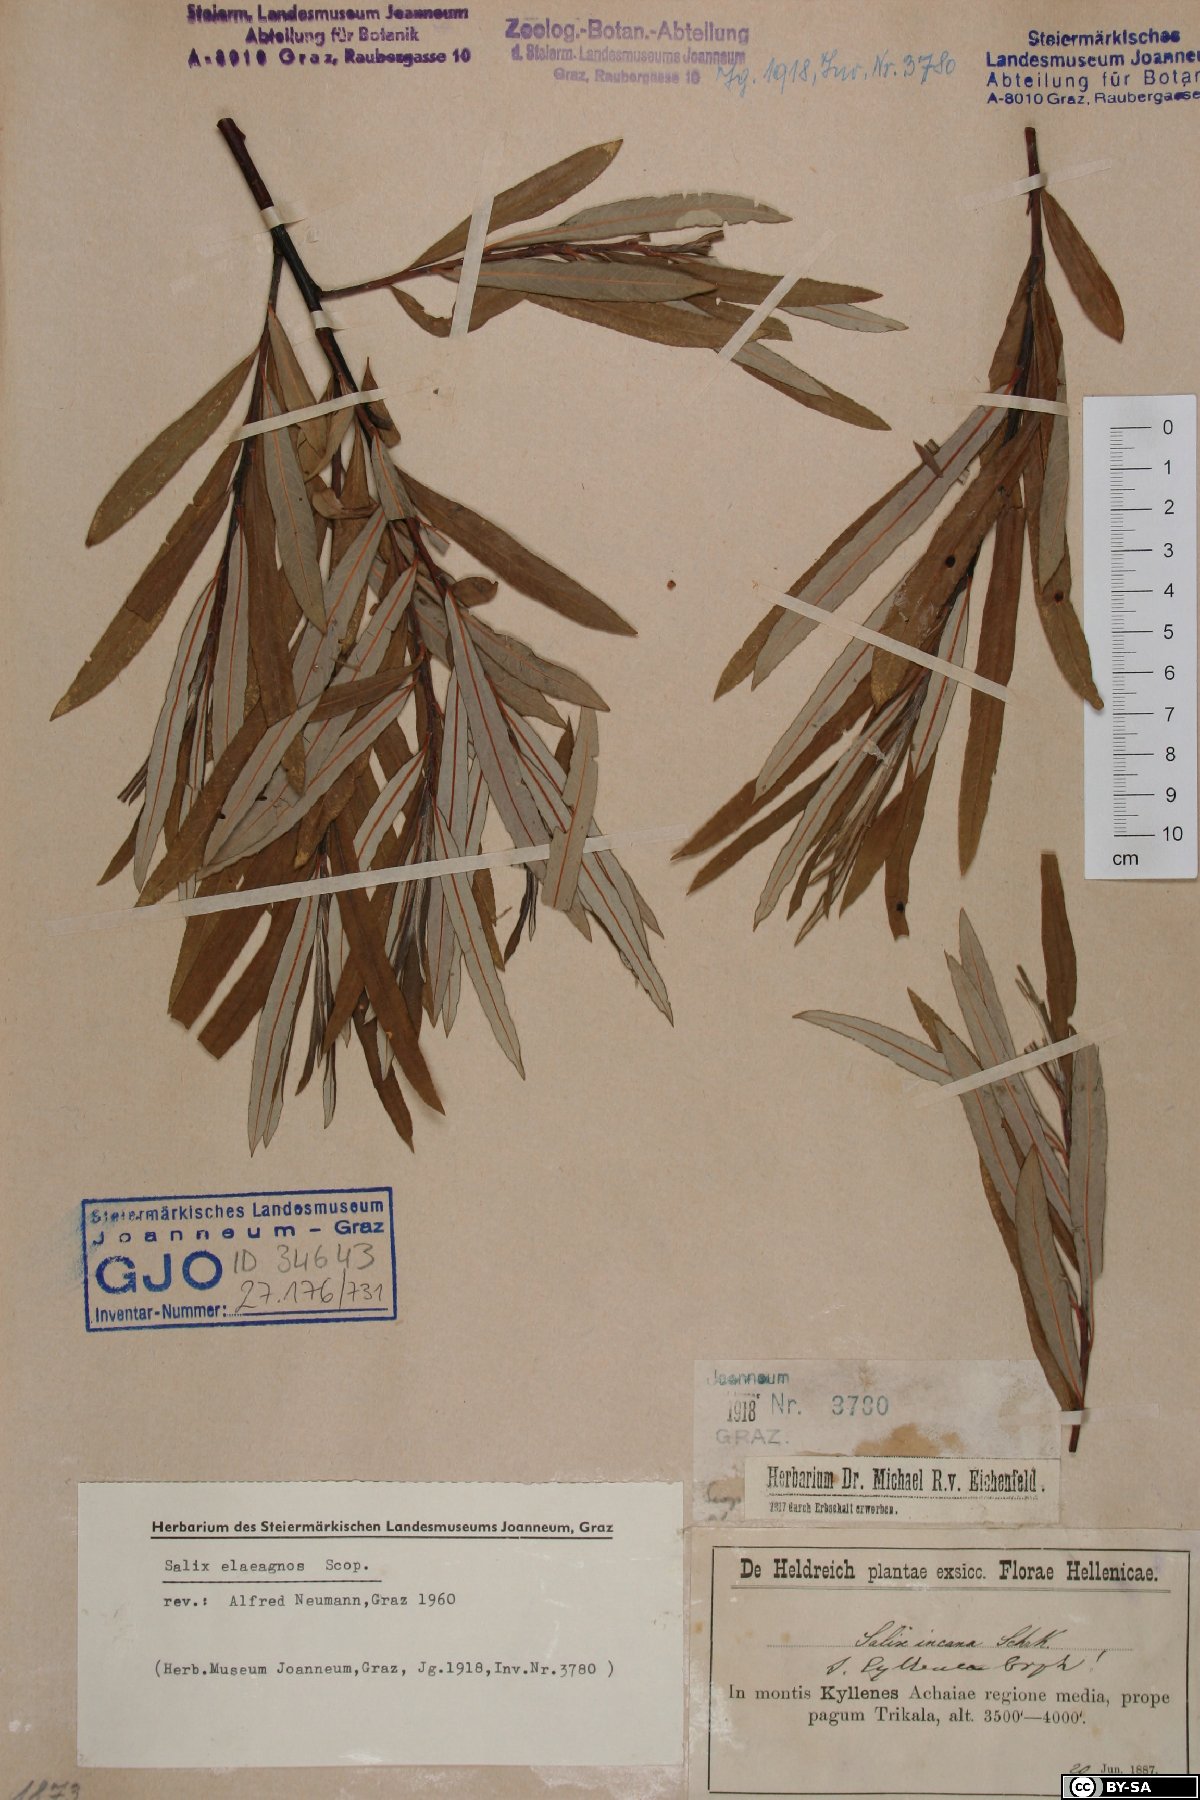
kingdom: Plantae
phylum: Tracheophyta
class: Magnoliopsida
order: Malpighiales
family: Salicaceae
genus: Salix
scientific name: Salix eleagnos
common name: Elaeagnus willow
